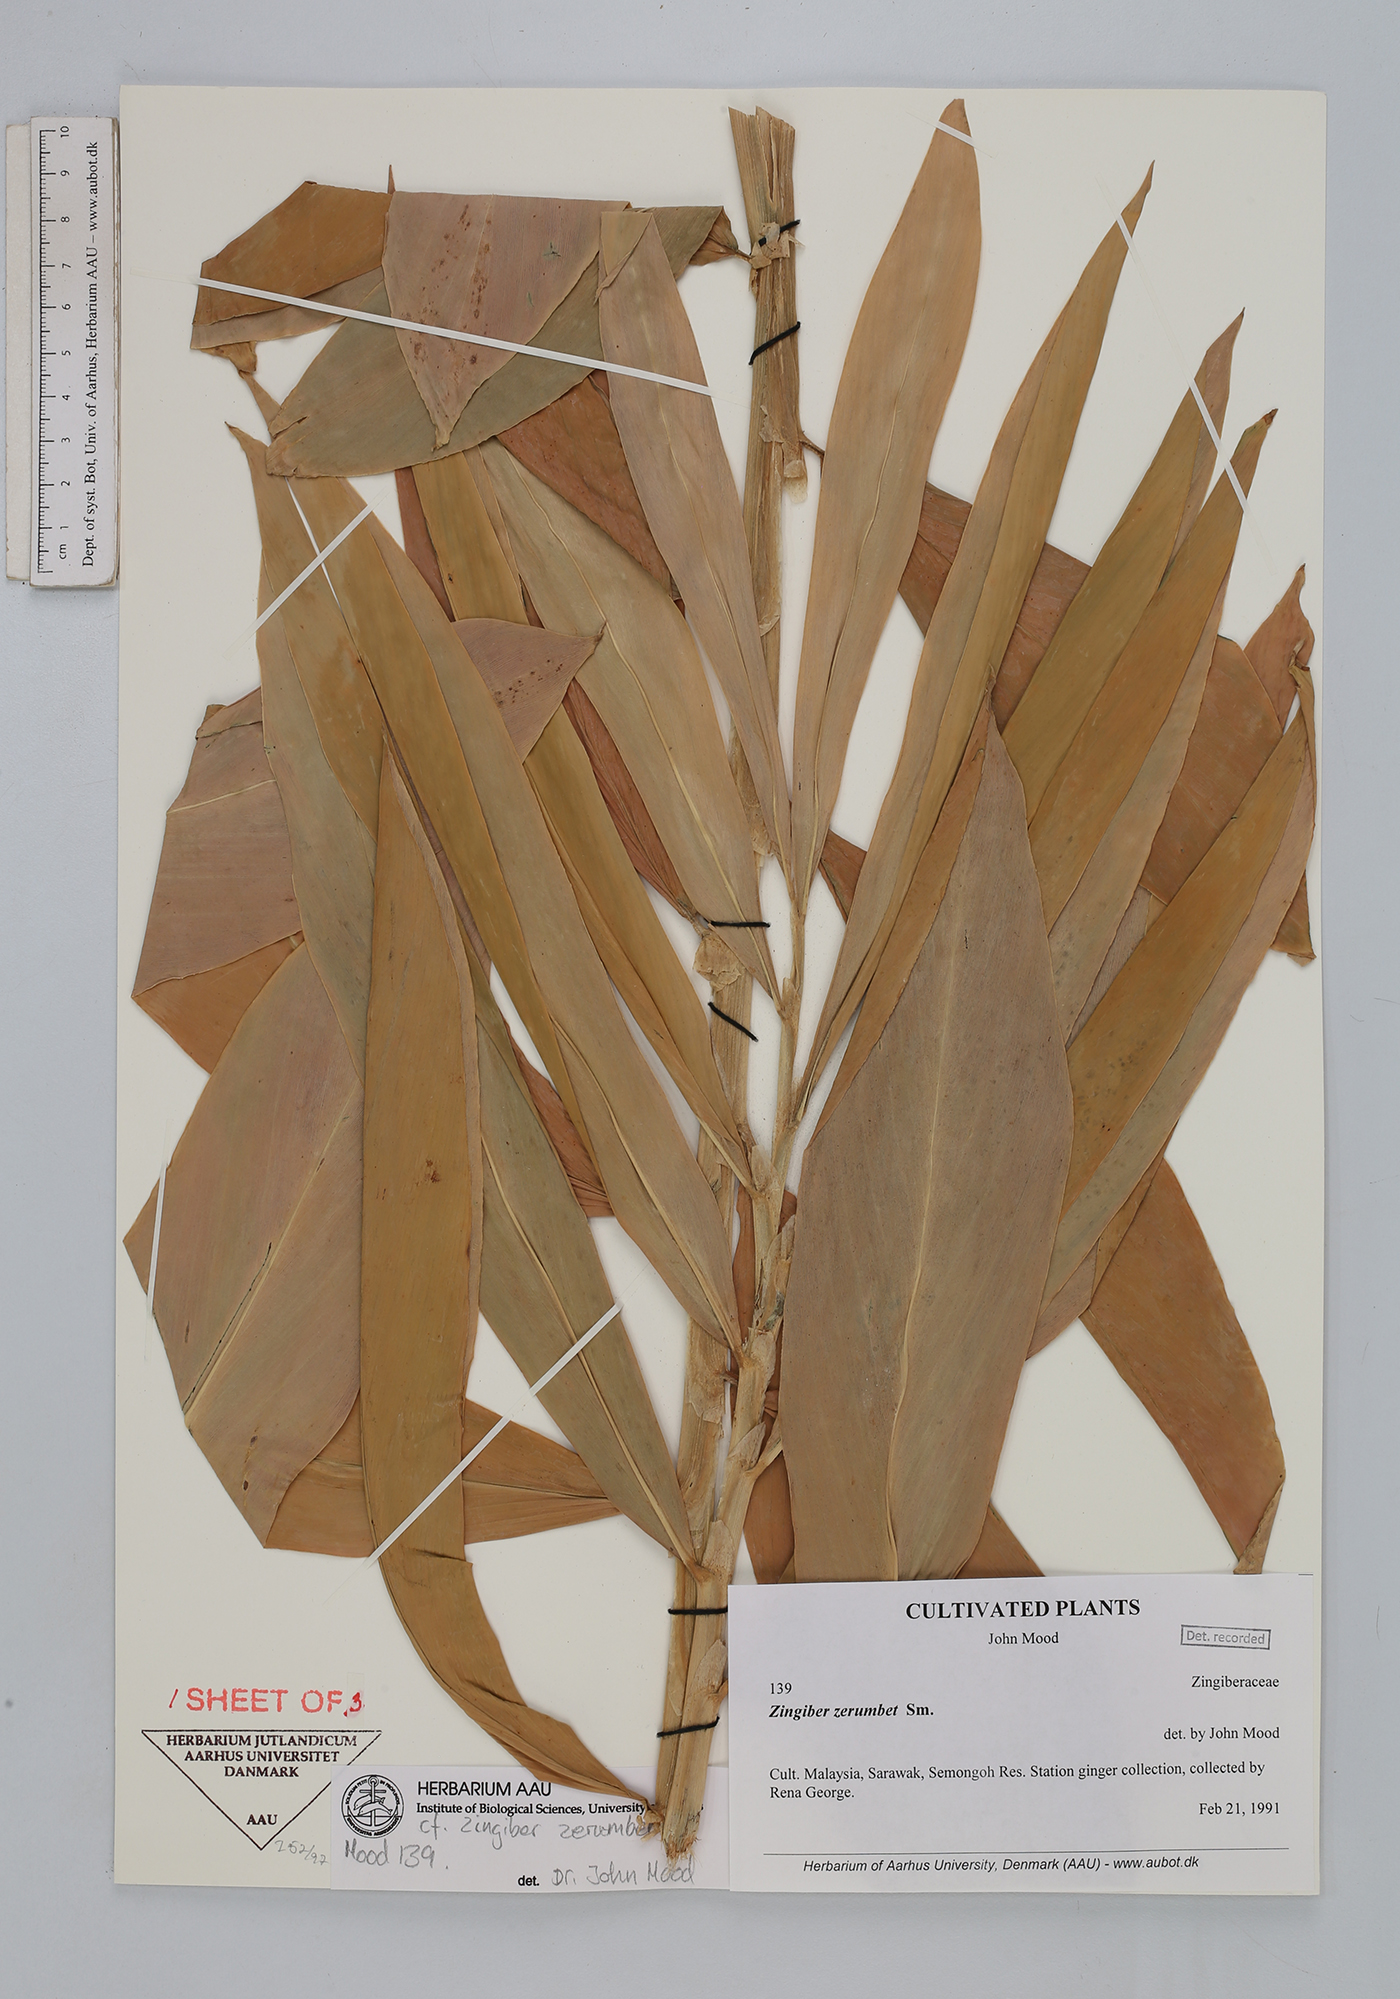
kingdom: Plantae
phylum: Tracheophyta
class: Liliopsida
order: Zingiberales
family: Zingiberaceae
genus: Zingiber
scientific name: Zingiber zerumbet
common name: Bitter ginger
